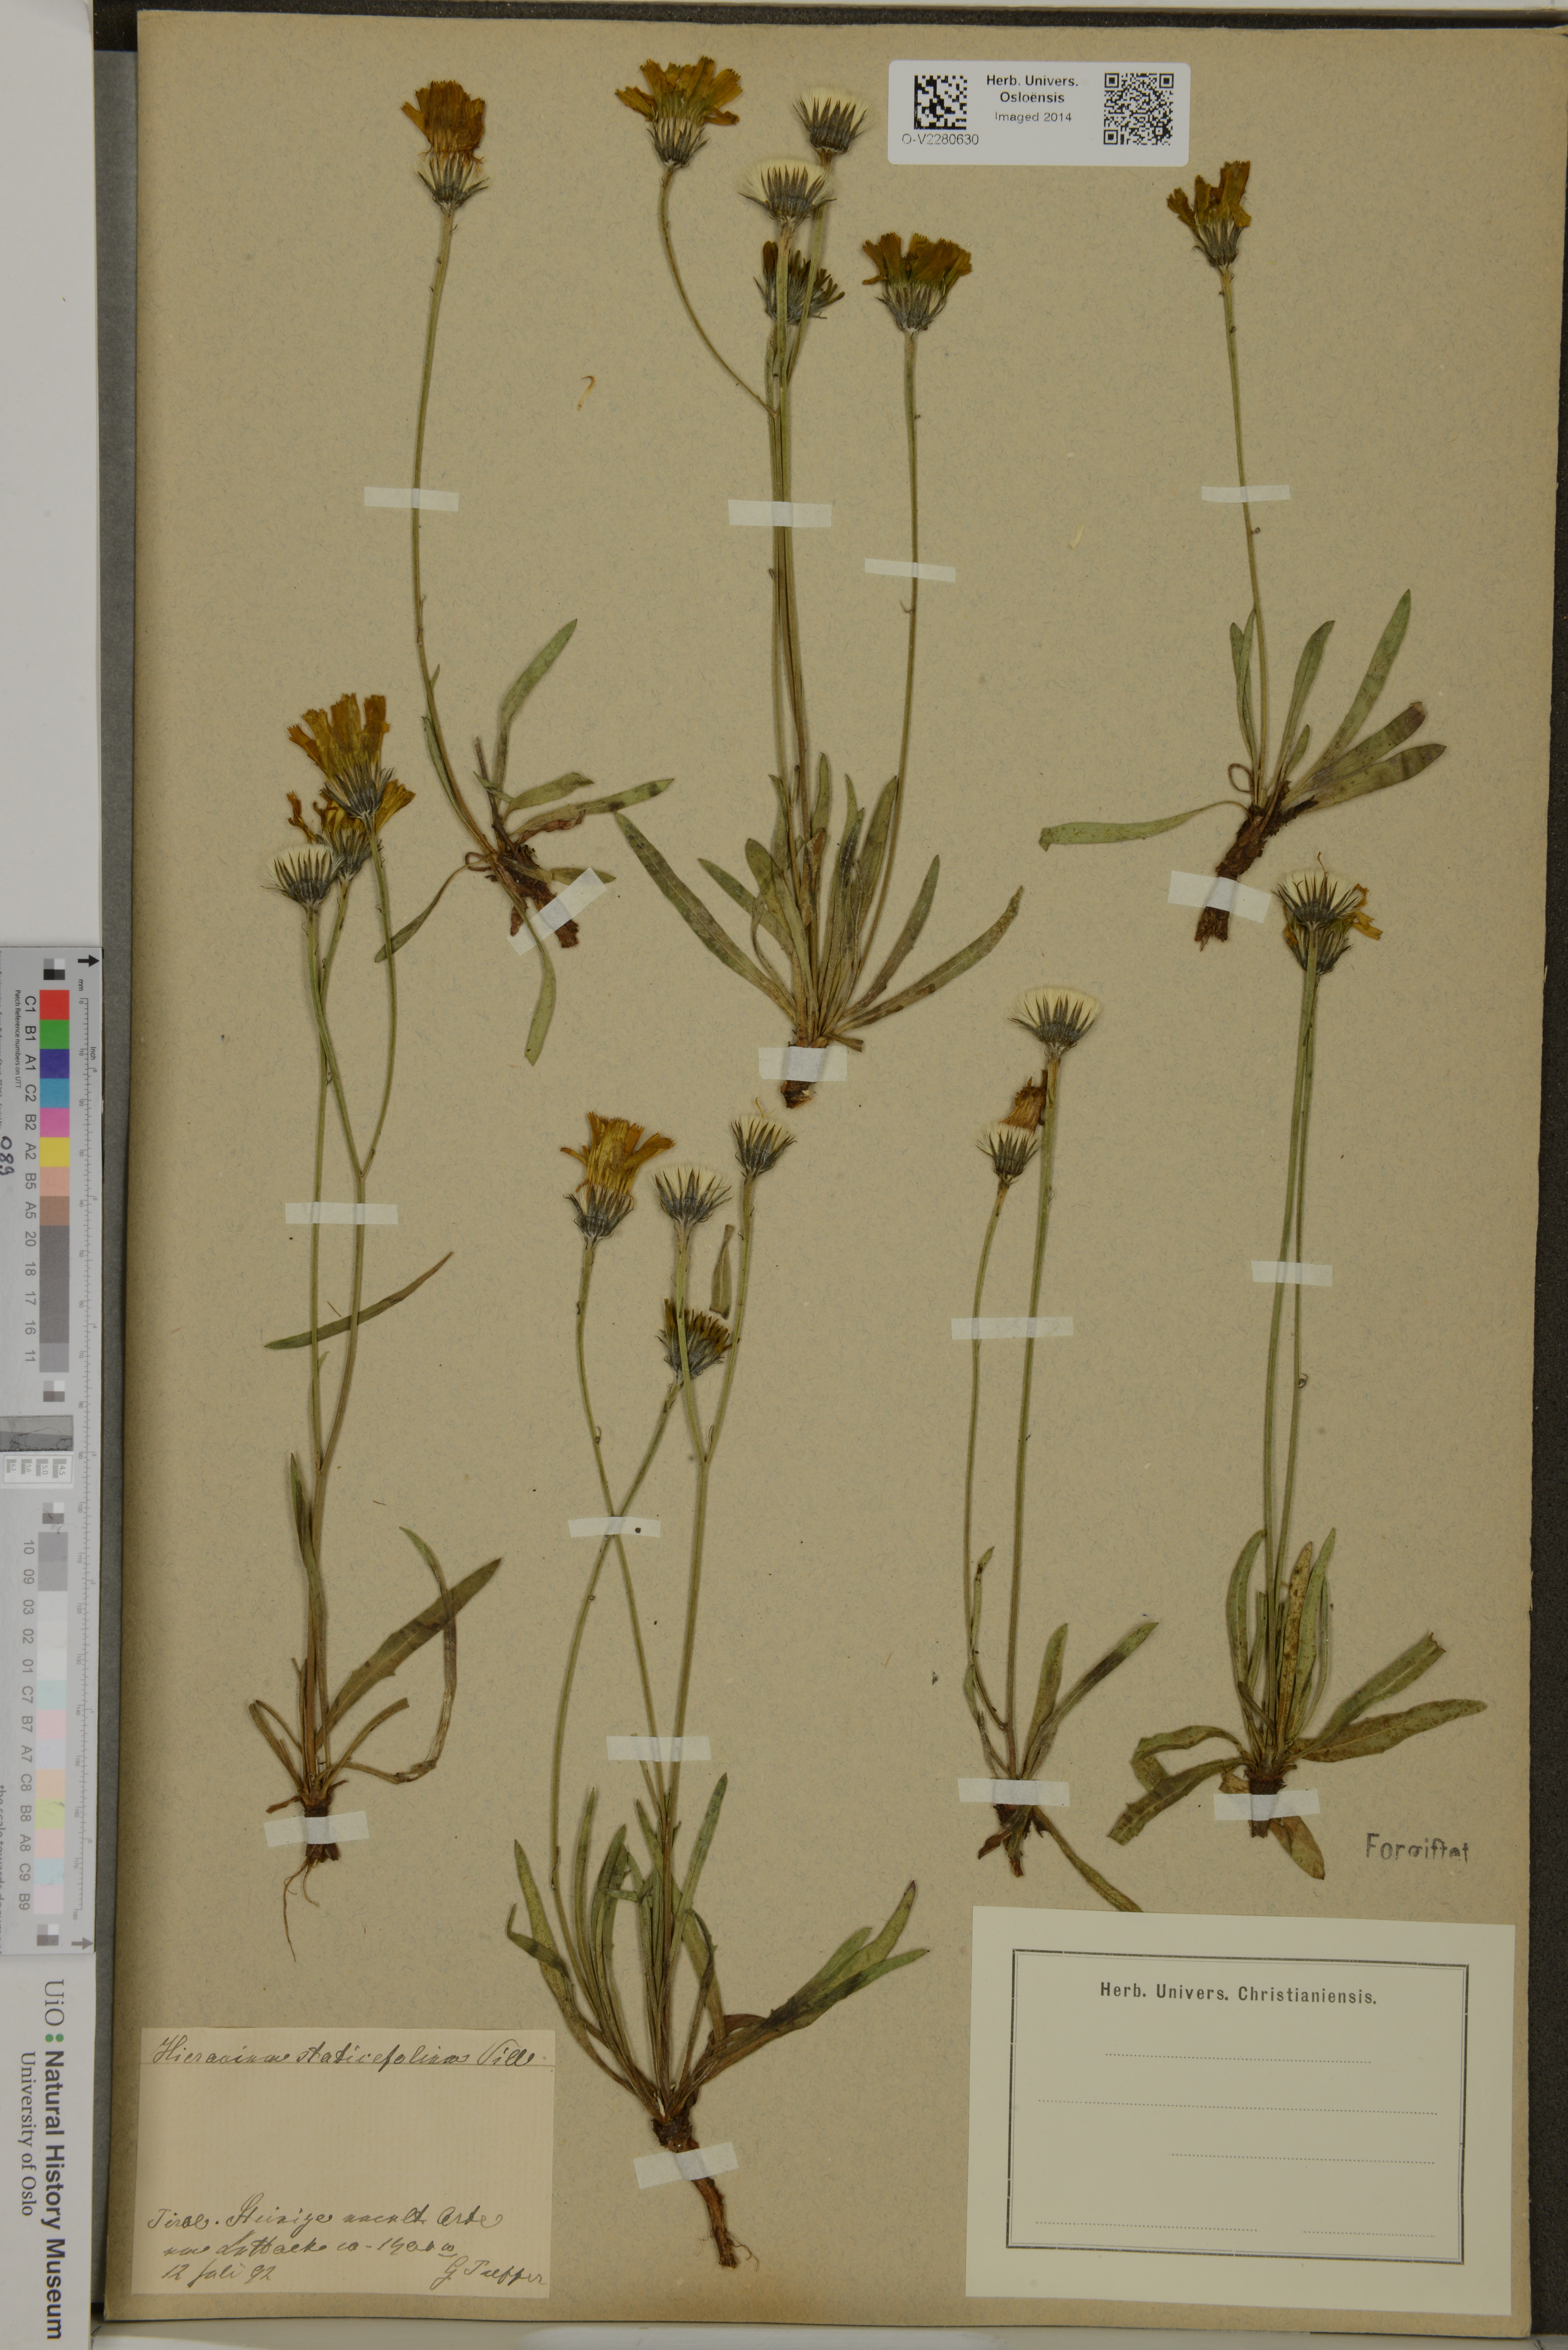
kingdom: Plantae
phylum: Tracheophyta
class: Magnoliopsida
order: Asterales
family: Asteraceae
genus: Hieracium
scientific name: Hieracium staticifolium
